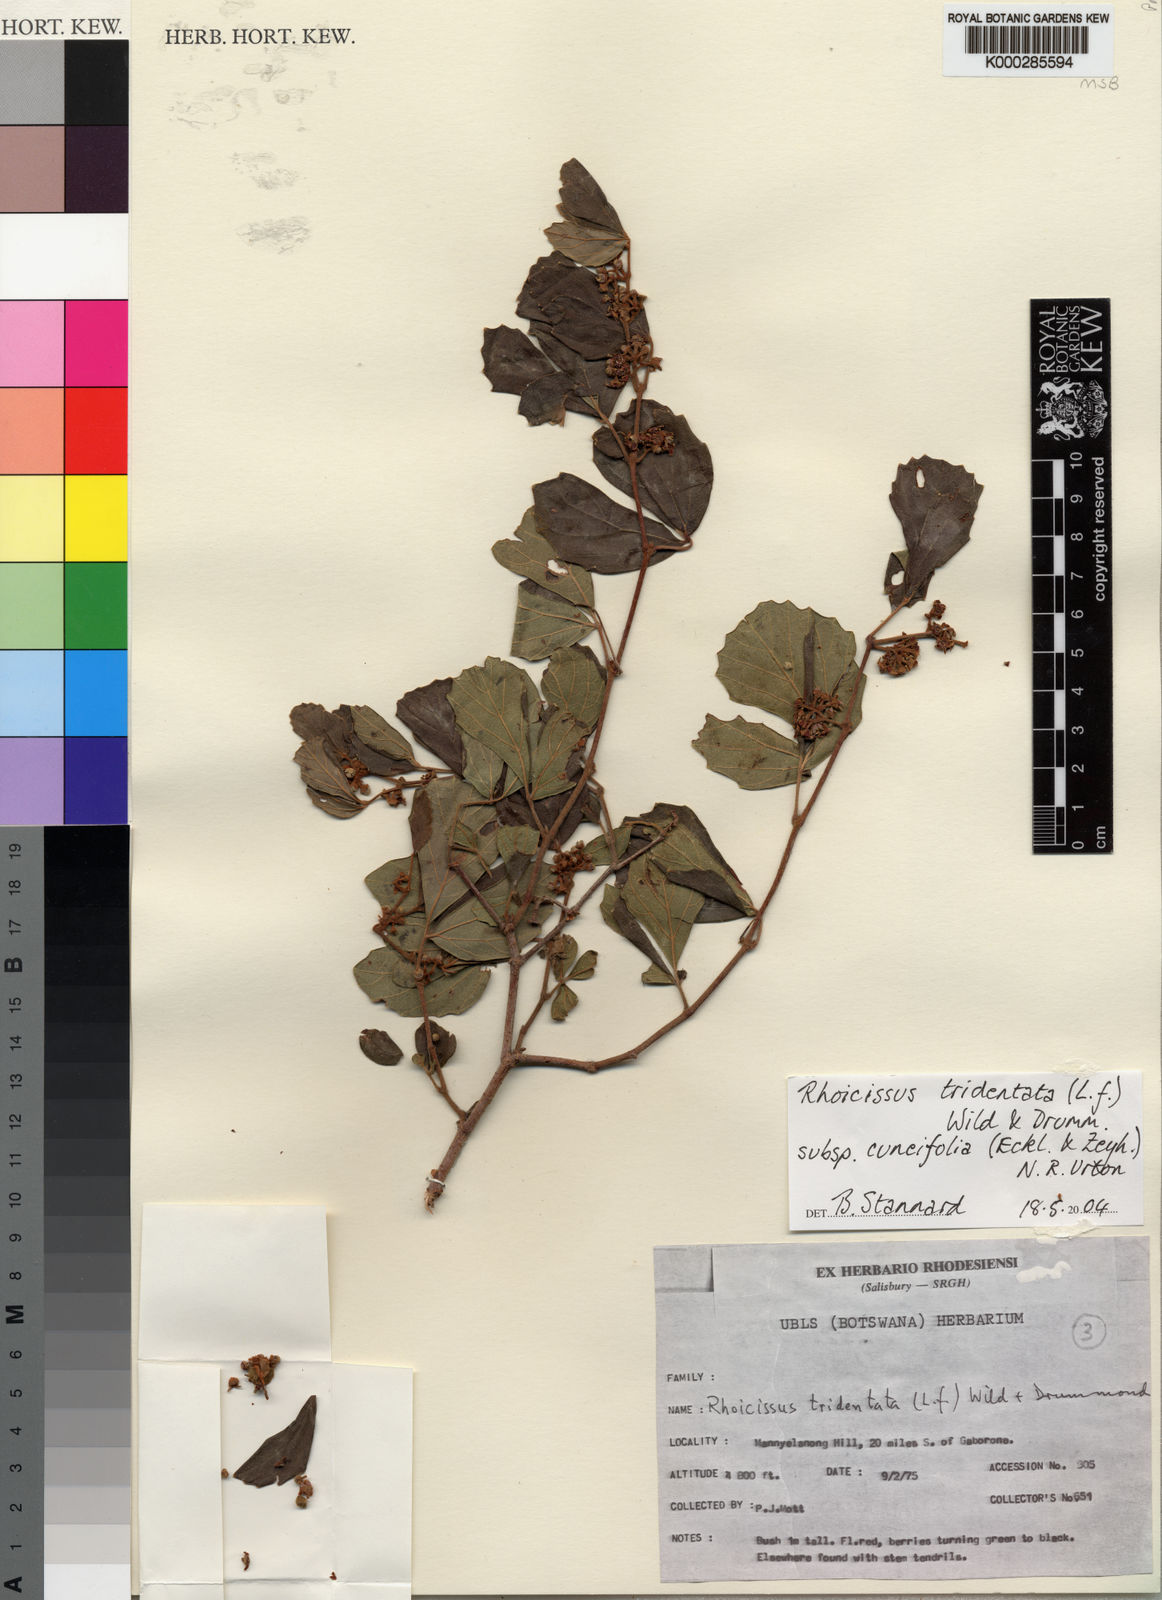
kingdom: Plantae
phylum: Tracheophyta
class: Magnoliopsida
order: Vitales
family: Vitaceae
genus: Rhoicissus
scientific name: Rhoicissus tridentata
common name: Common forest grape
